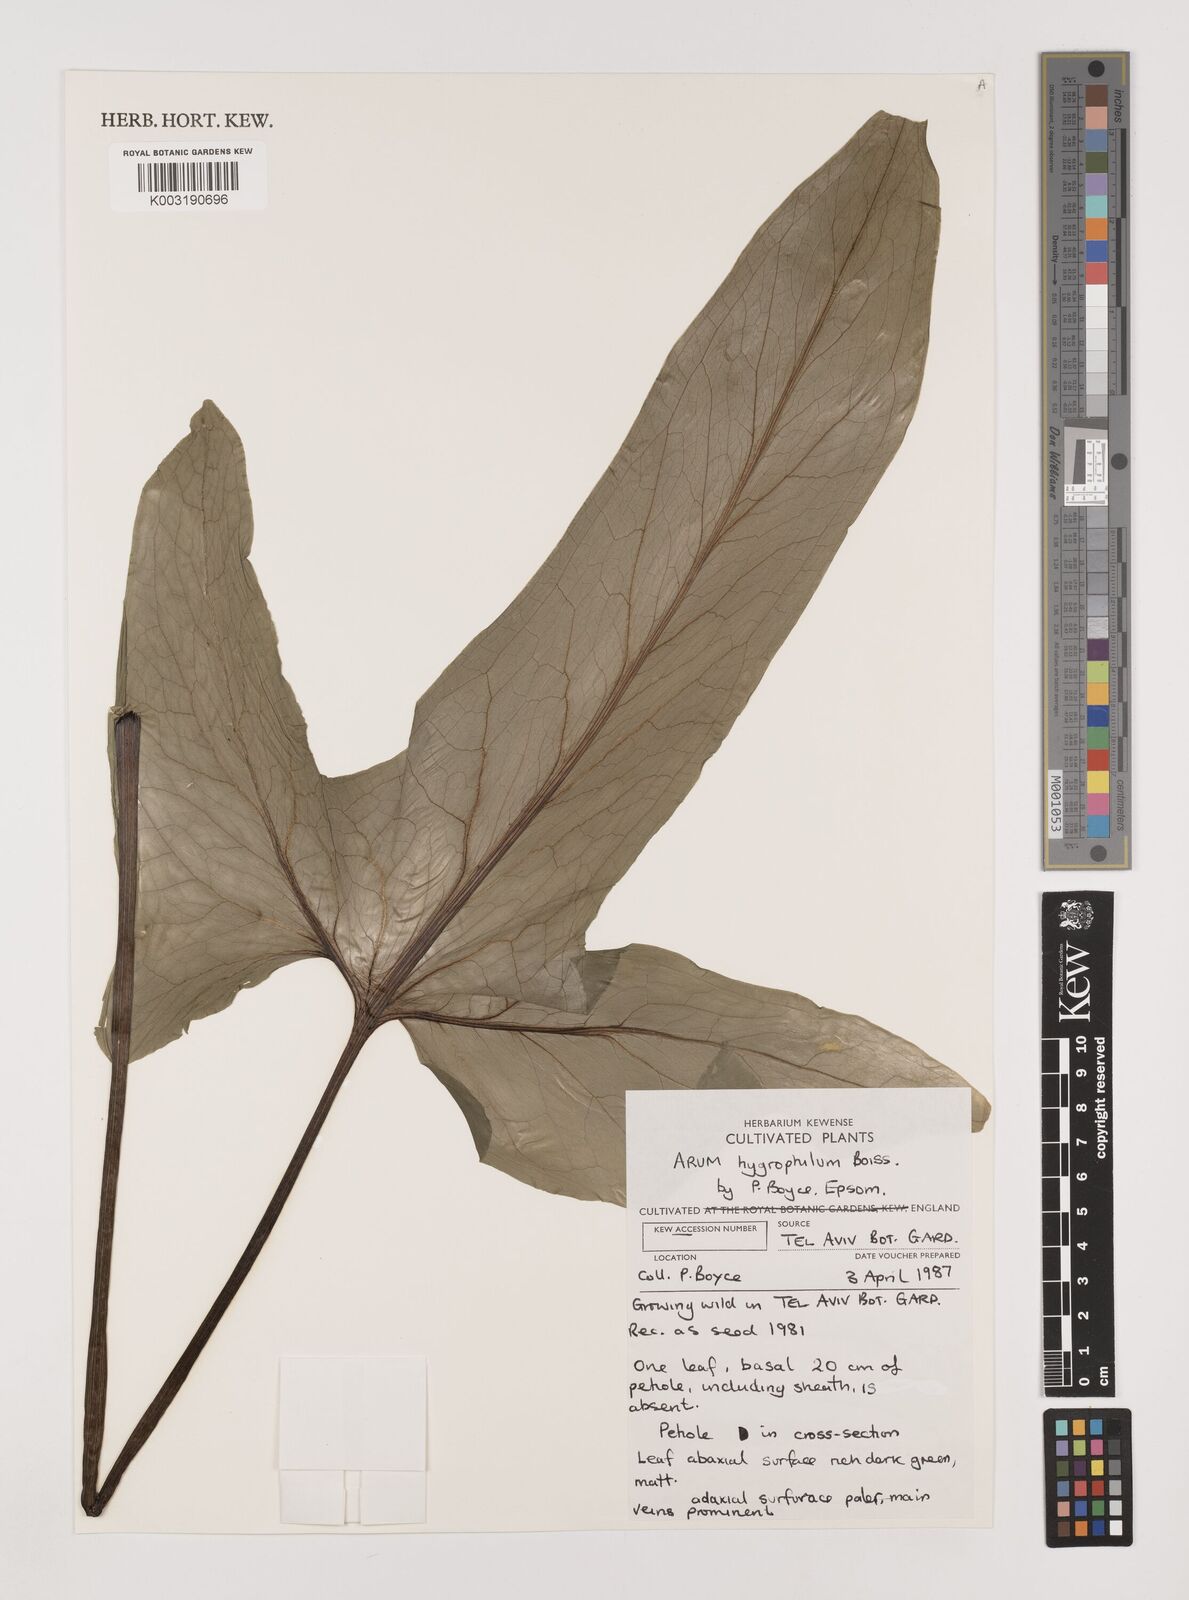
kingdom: Plantae
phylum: Tracheophyta
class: Liliopsida
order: Alismatales
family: Araceae
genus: Arum
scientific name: Arum hygrophilum
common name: Water arum
